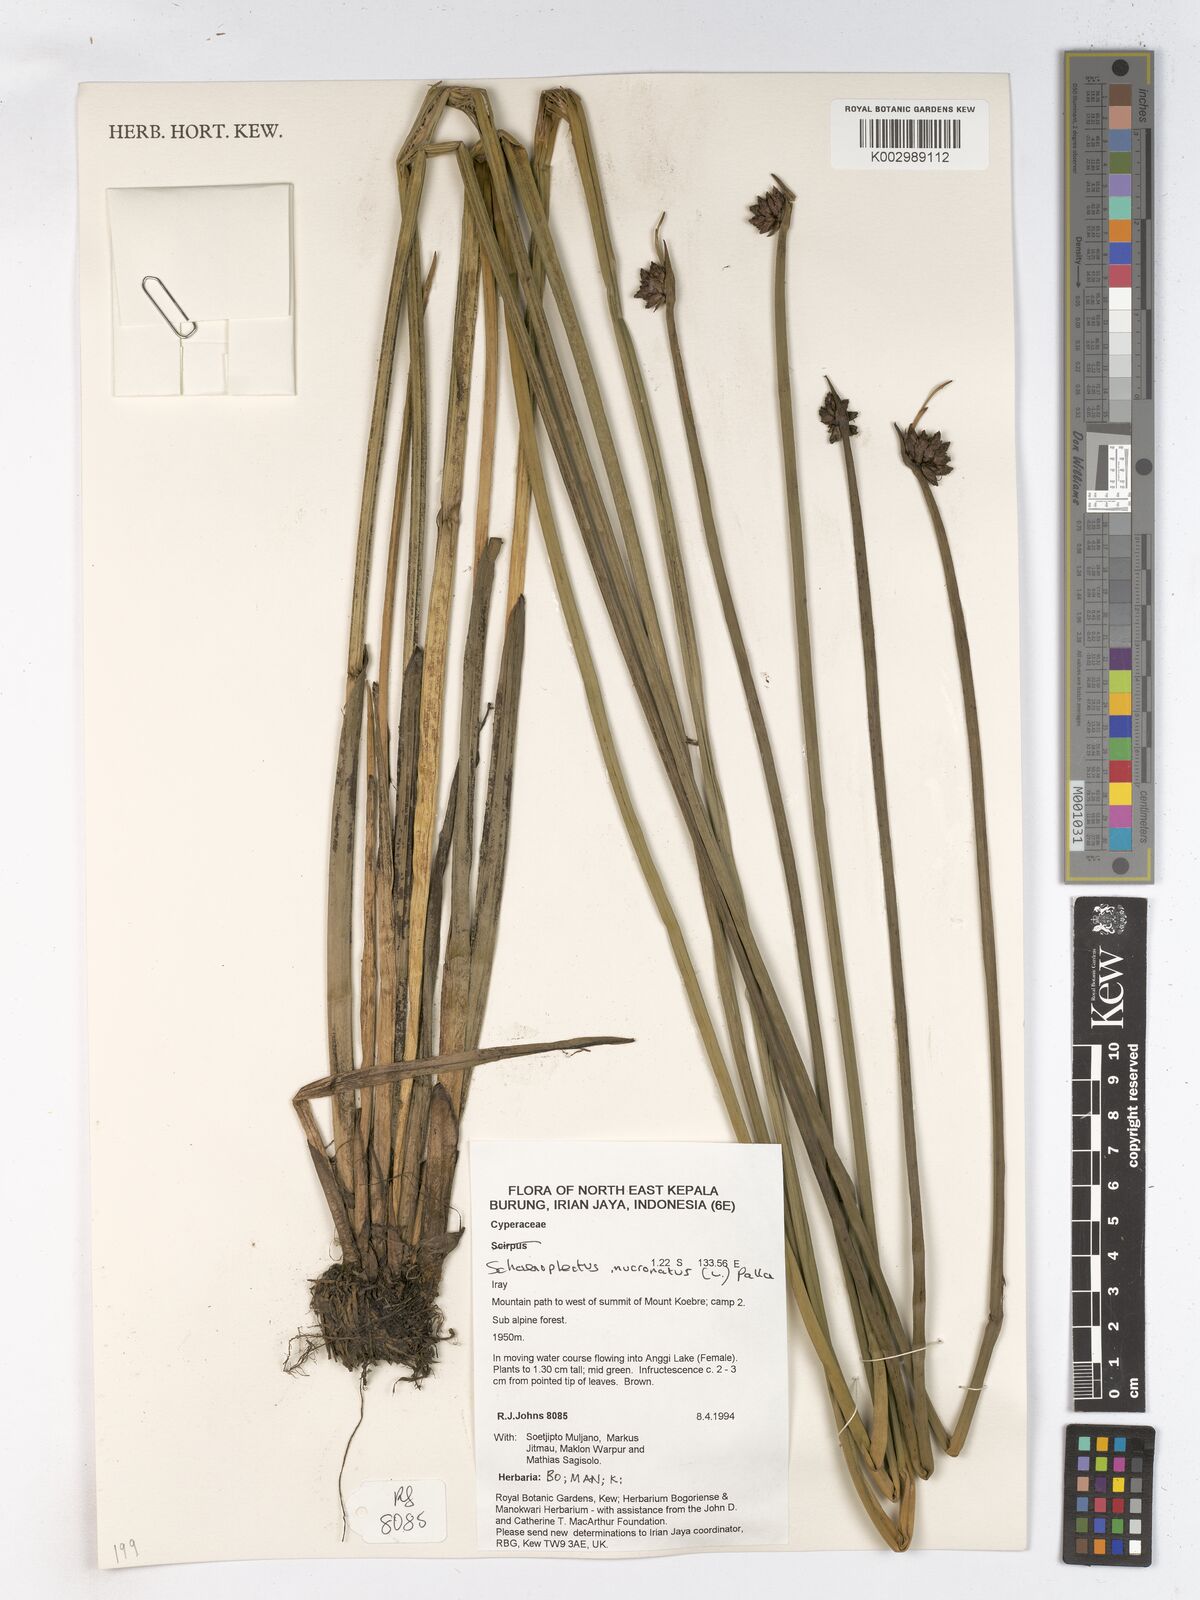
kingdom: Plantae
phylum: Tracheophyta
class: Liliopsida
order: Poales
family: Cyperaceae
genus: Schoenoplectiella
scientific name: Schoenoplectiella mucronata
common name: Bog bulrush
